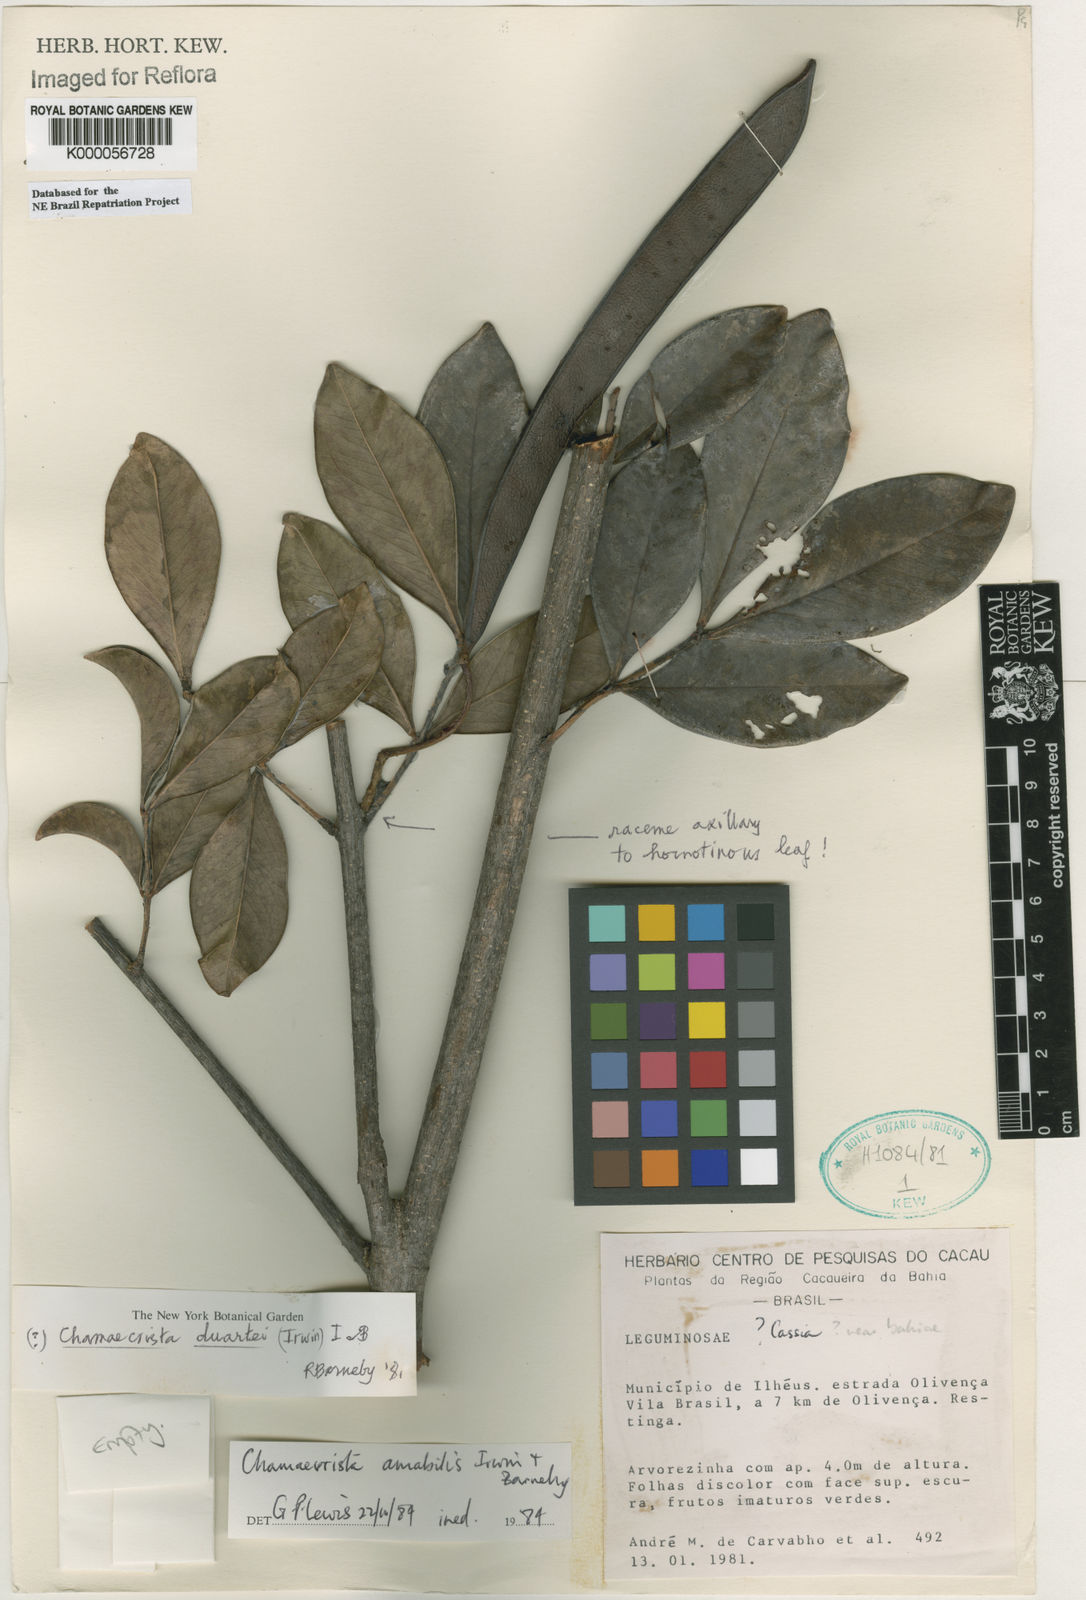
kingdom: Plantae
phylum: Tracheophyta
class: Magnoliopsida
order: Fabales
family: Fabaceae
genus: Chamaecrista
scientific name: Chamaecrista amabilis
